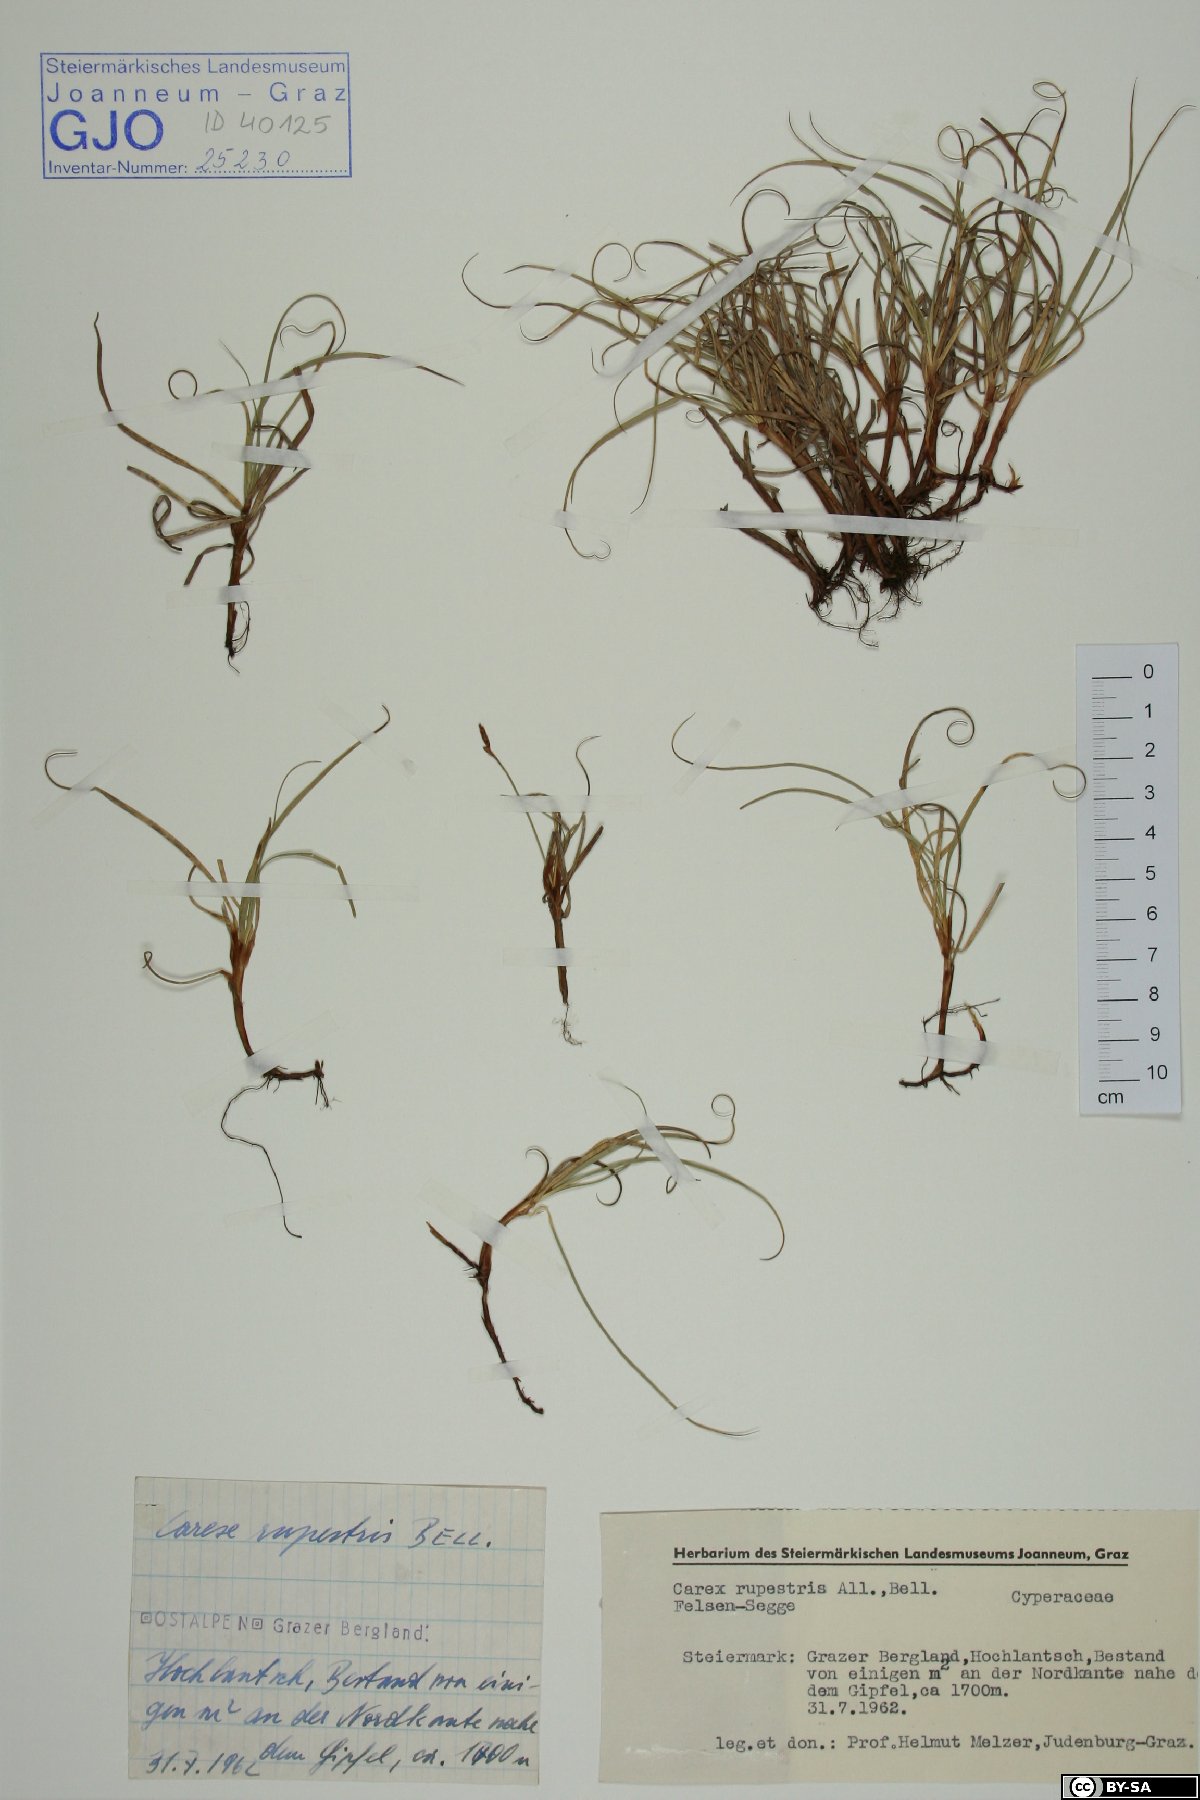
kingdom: Plantae
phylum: Tracheophyta
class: Liliopsida
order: Poales
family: Cyperaceae
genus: Carex
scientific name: Carex rupestris
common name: Rock sedge
